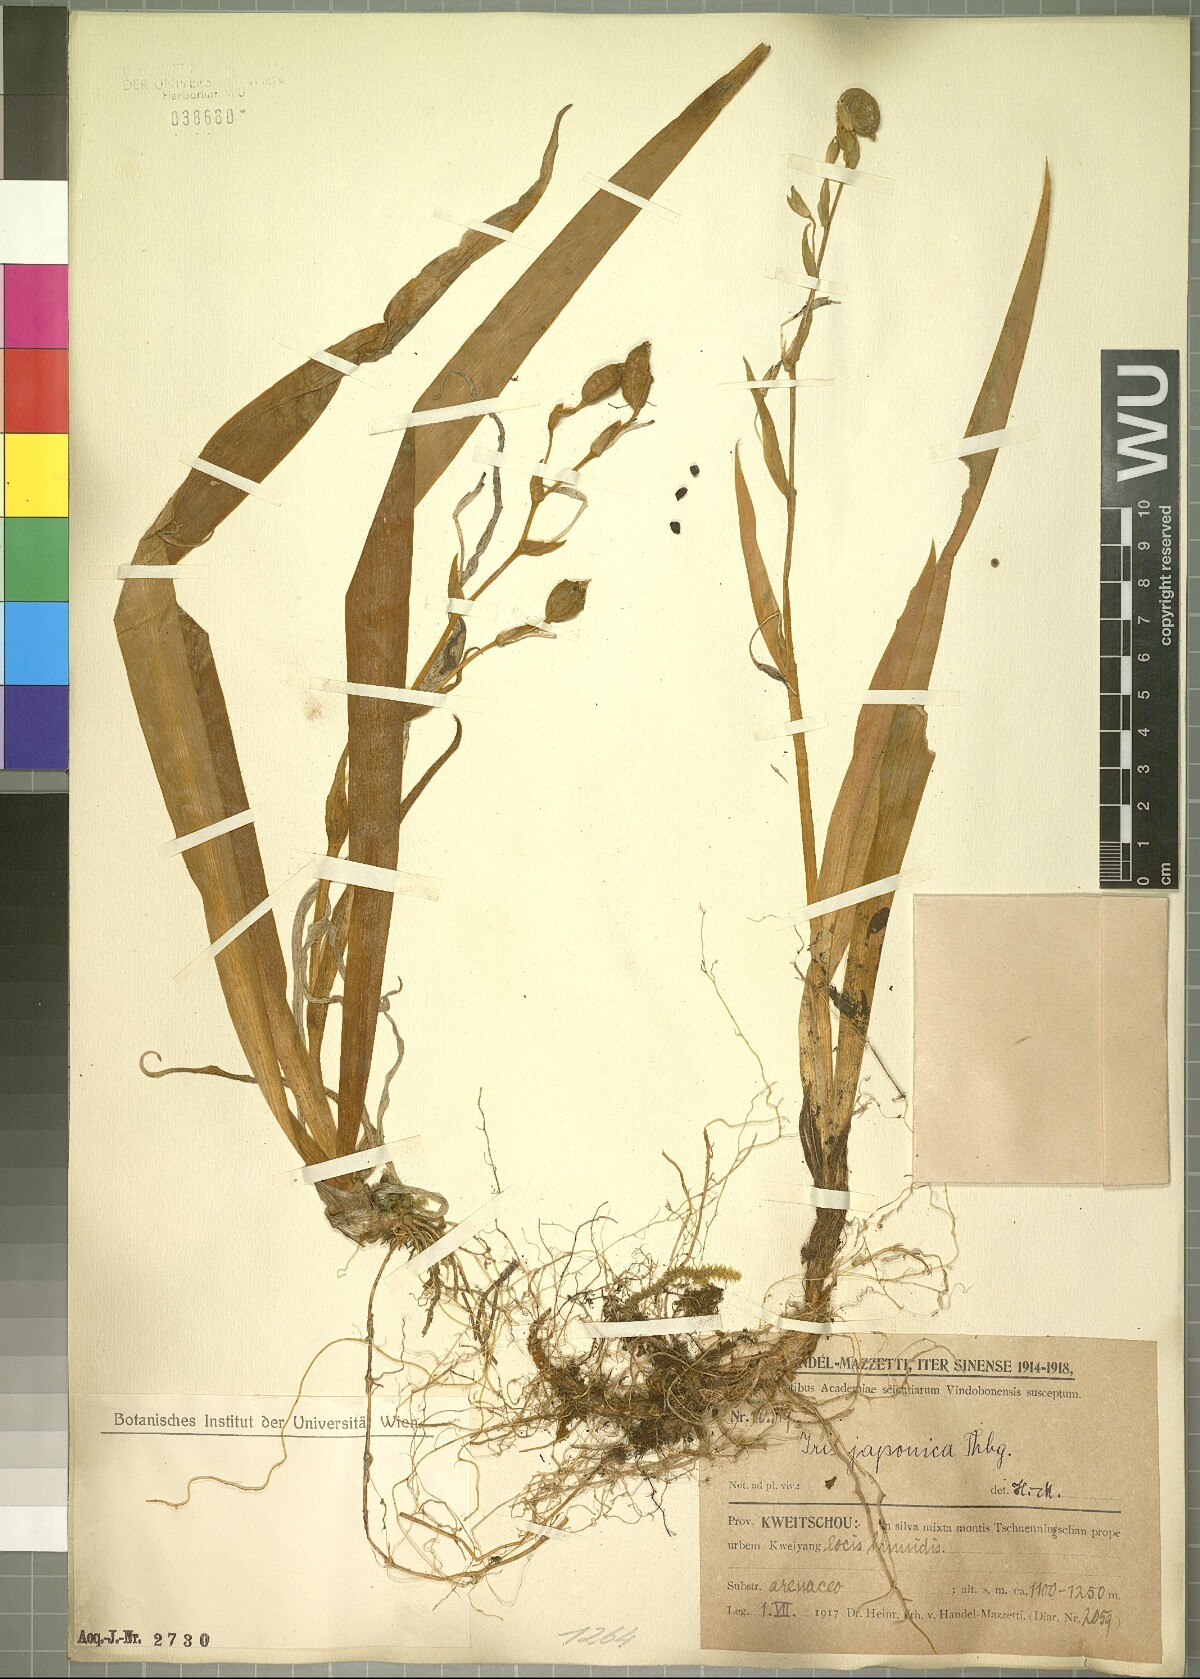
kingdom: Plantae
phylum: Tracheophyta
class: Liliopsida
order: Asparagales
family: Iridaceae
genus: Iris
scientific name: Iris japonica
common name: Butterfly-flower
